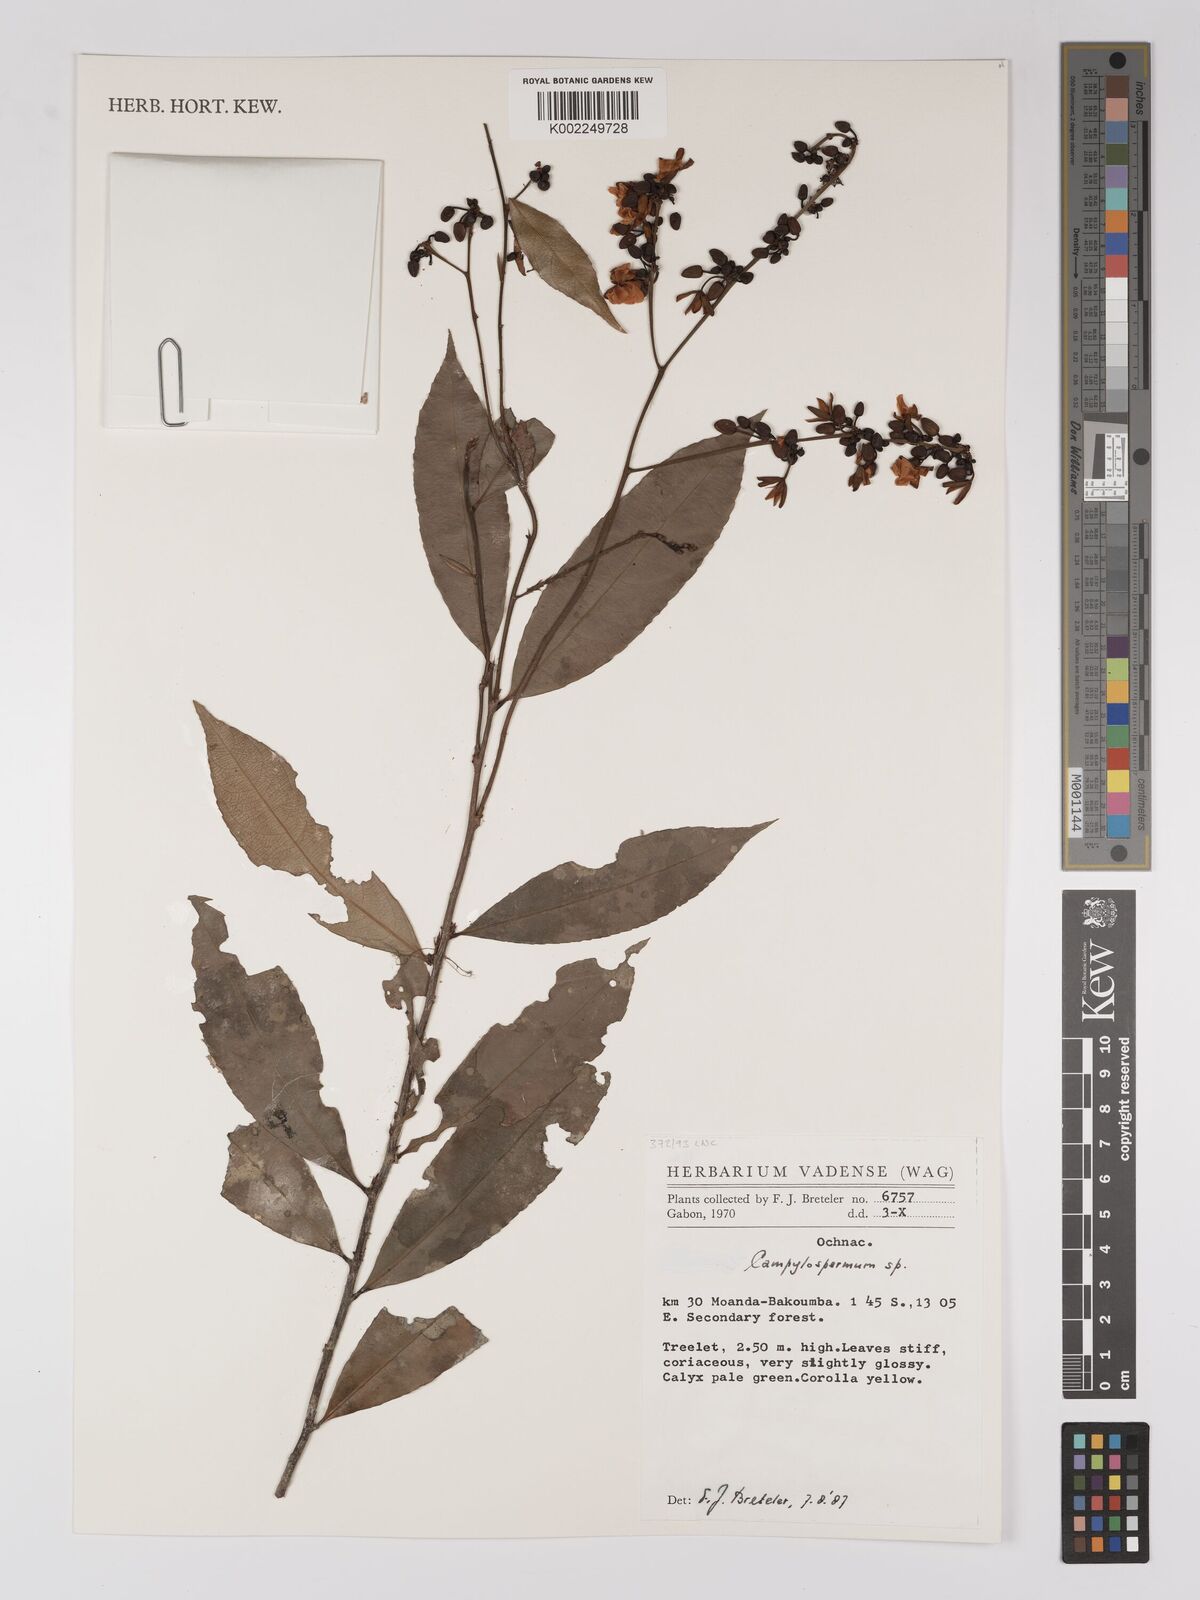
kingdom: Plantae
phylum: Tracheophyta
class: Magnoliopsida
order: Malpighiales
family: Ochnaceae
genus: Campylospermum
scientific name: Campylospermum
